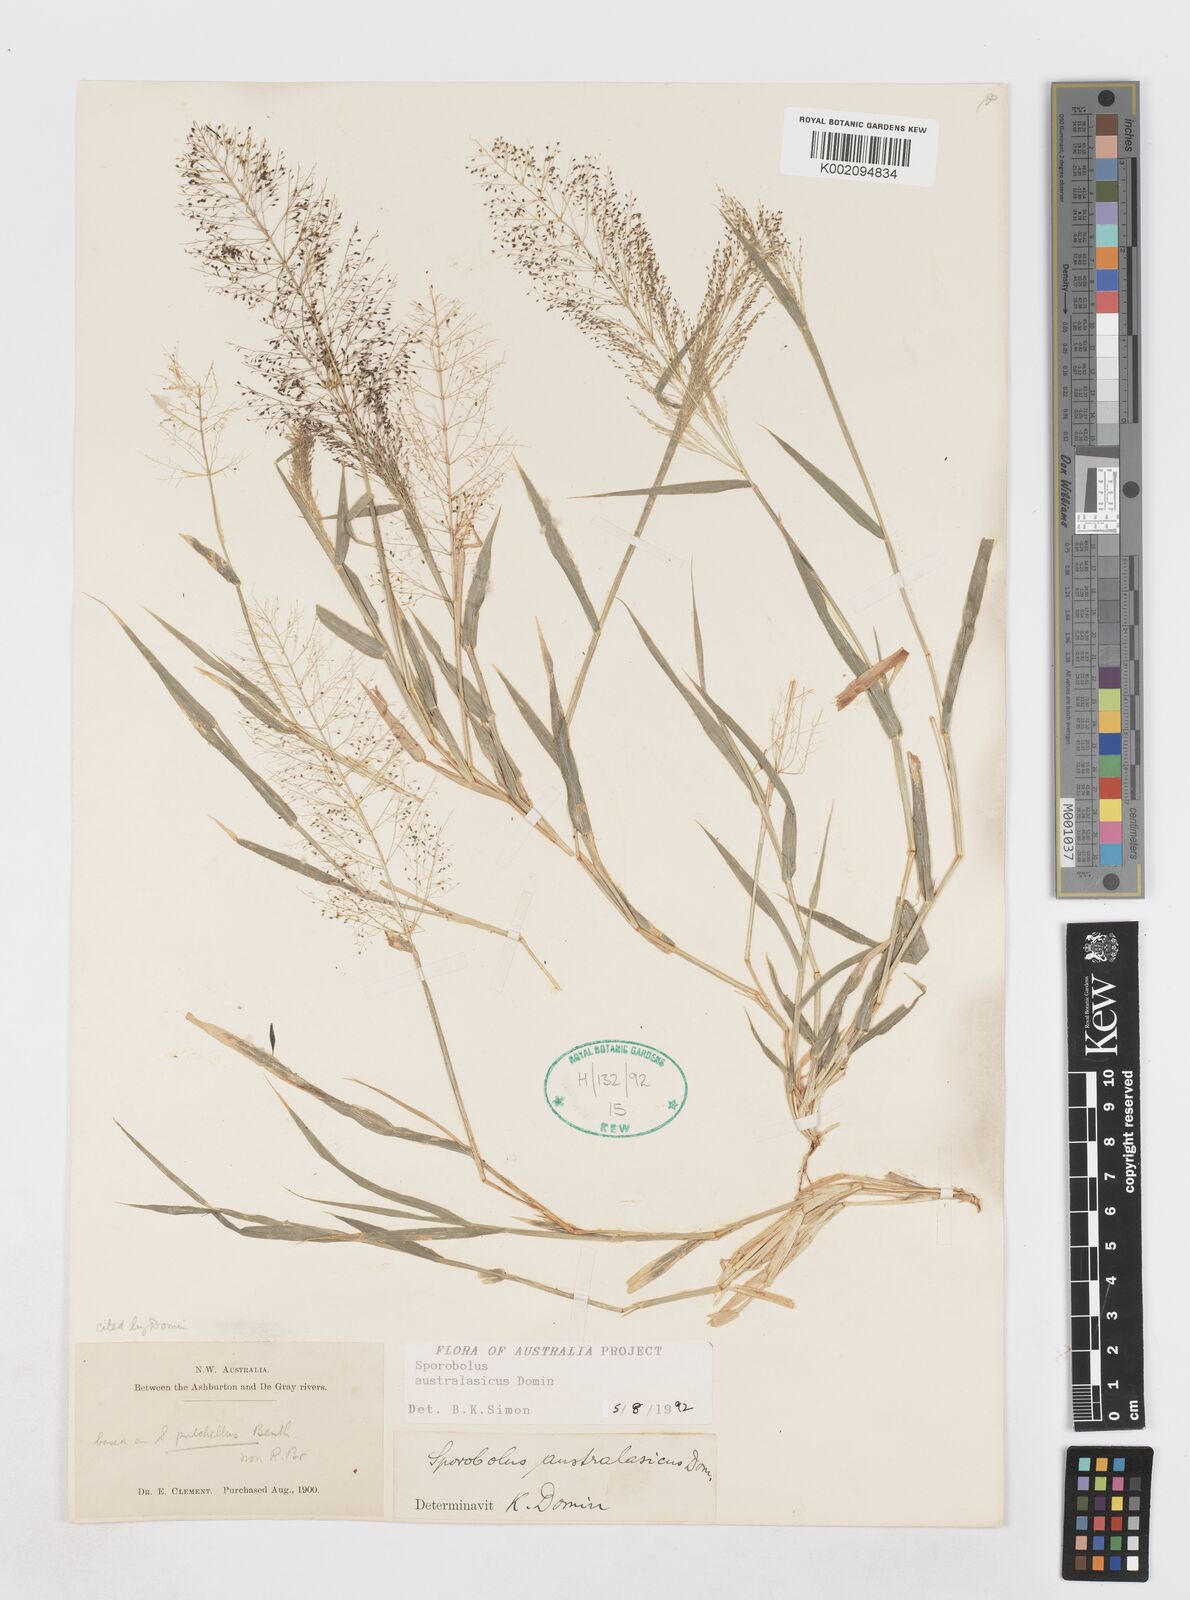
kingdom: Plantae
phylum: Tracheophyta
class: Liliopsida
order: Poales
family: Poaceae
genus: Sporobolus
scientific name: Sporobolus australasicus
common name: Australian dropseed
